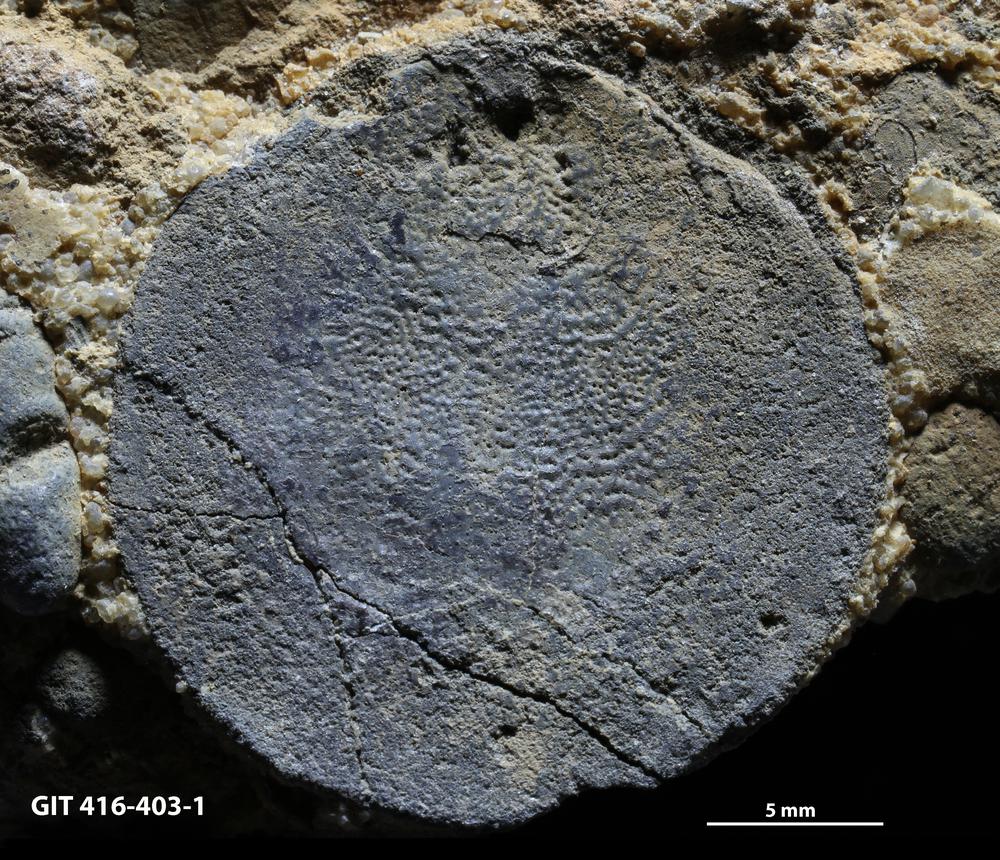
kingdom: Animalia
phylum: Brachiopoda
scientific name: Brachiopoda
